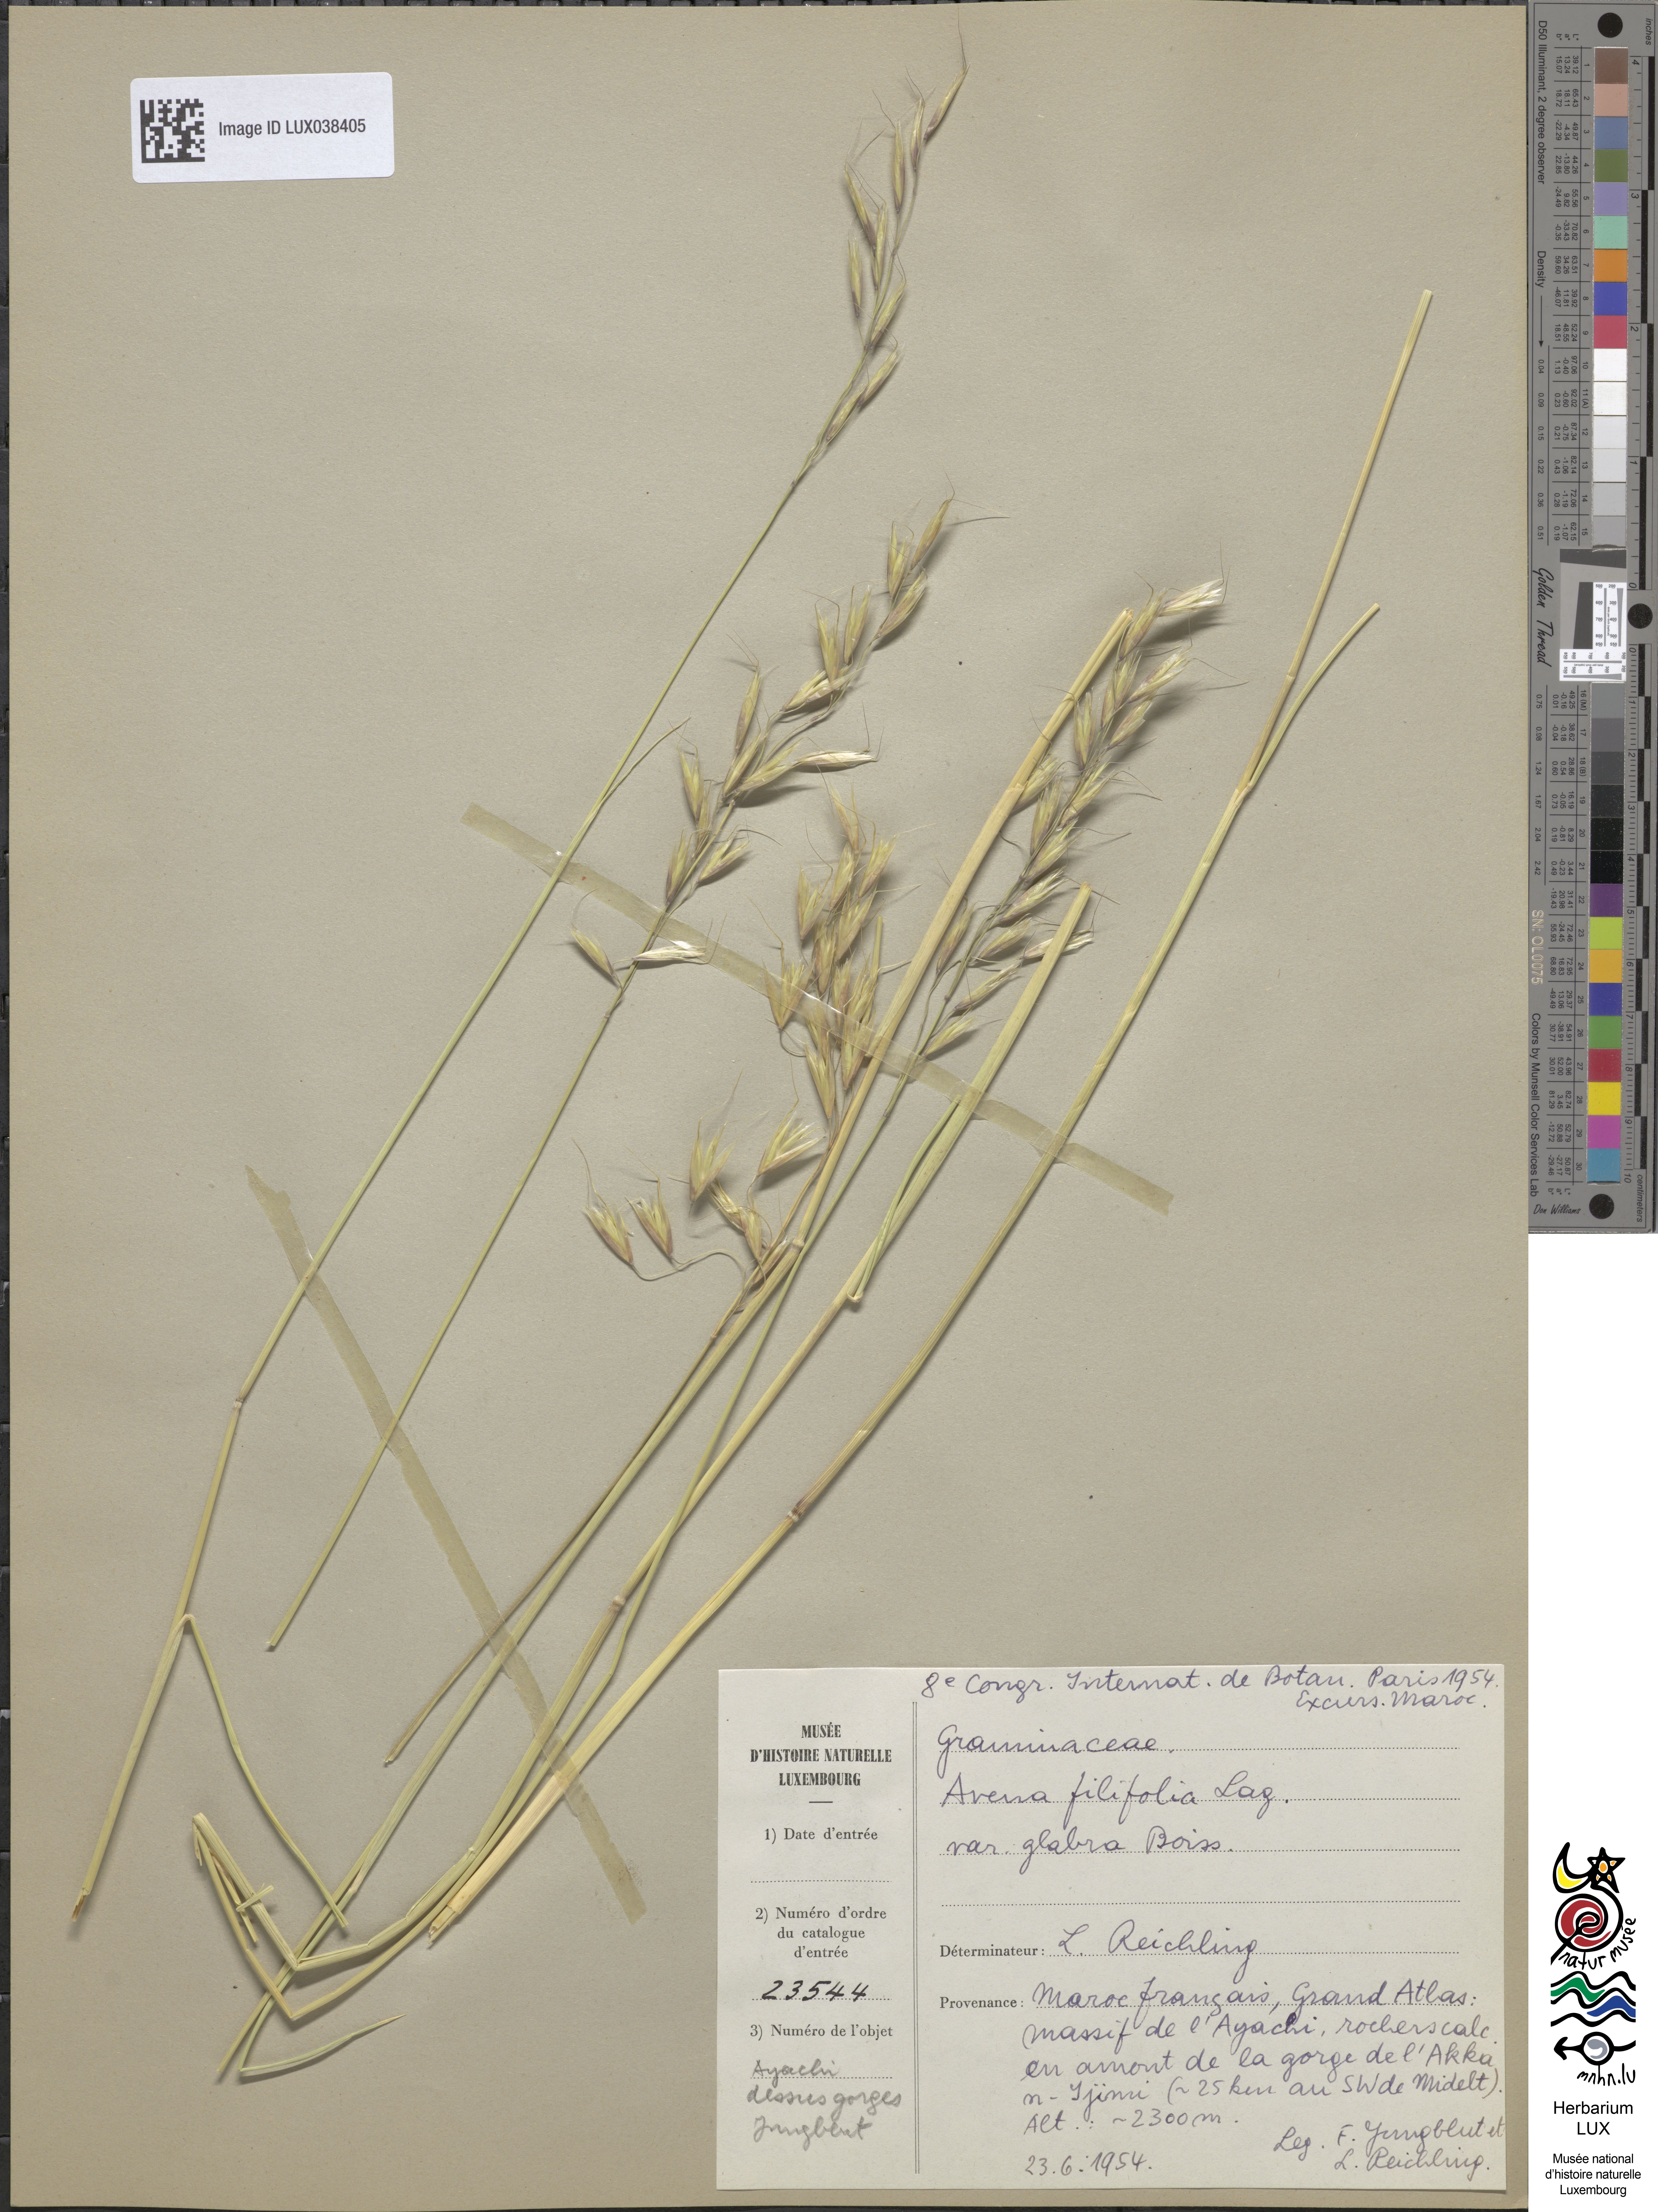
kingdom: Plantae
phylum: Tracheophyta
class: Liliopsida
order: Poales
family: Poaceae
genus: Helictotrichon
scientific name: Helictotrichon filifolium
